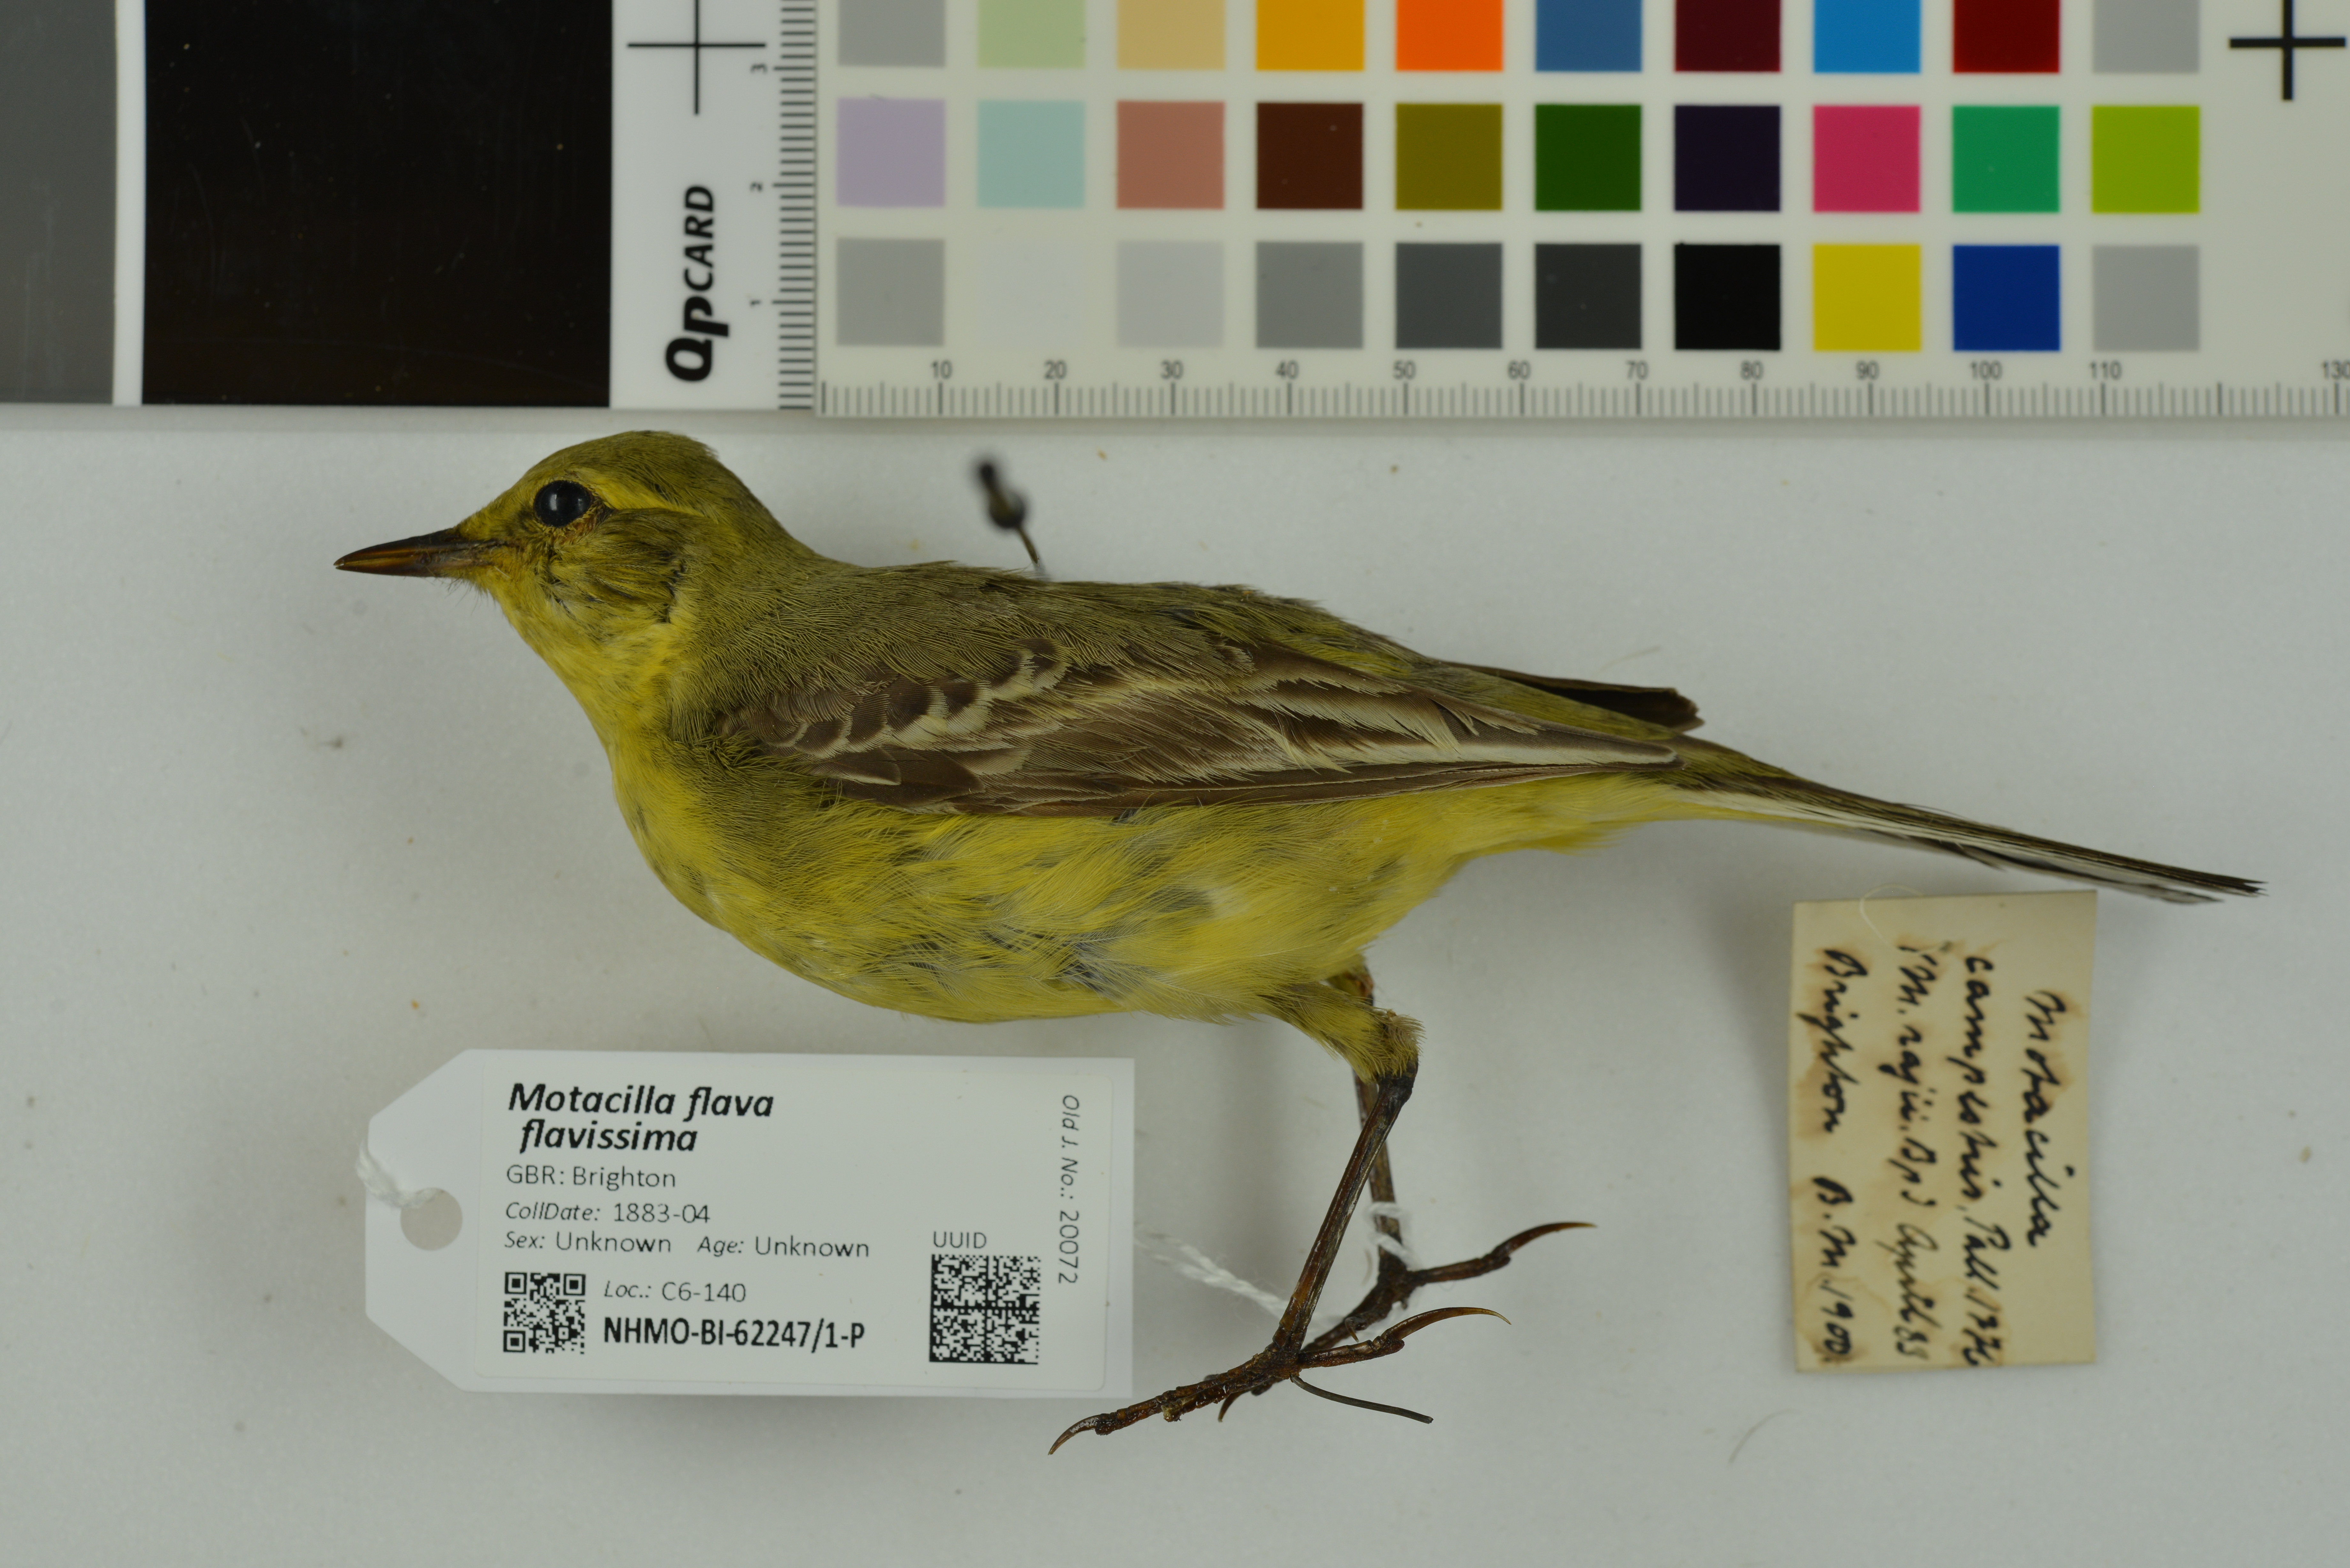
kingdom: Animalia
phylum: Chordata
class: Aves
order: Passeriformes
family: Motacillidae
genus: Motacilla
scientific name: Motacilla flava
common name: Western yellow wagtail
